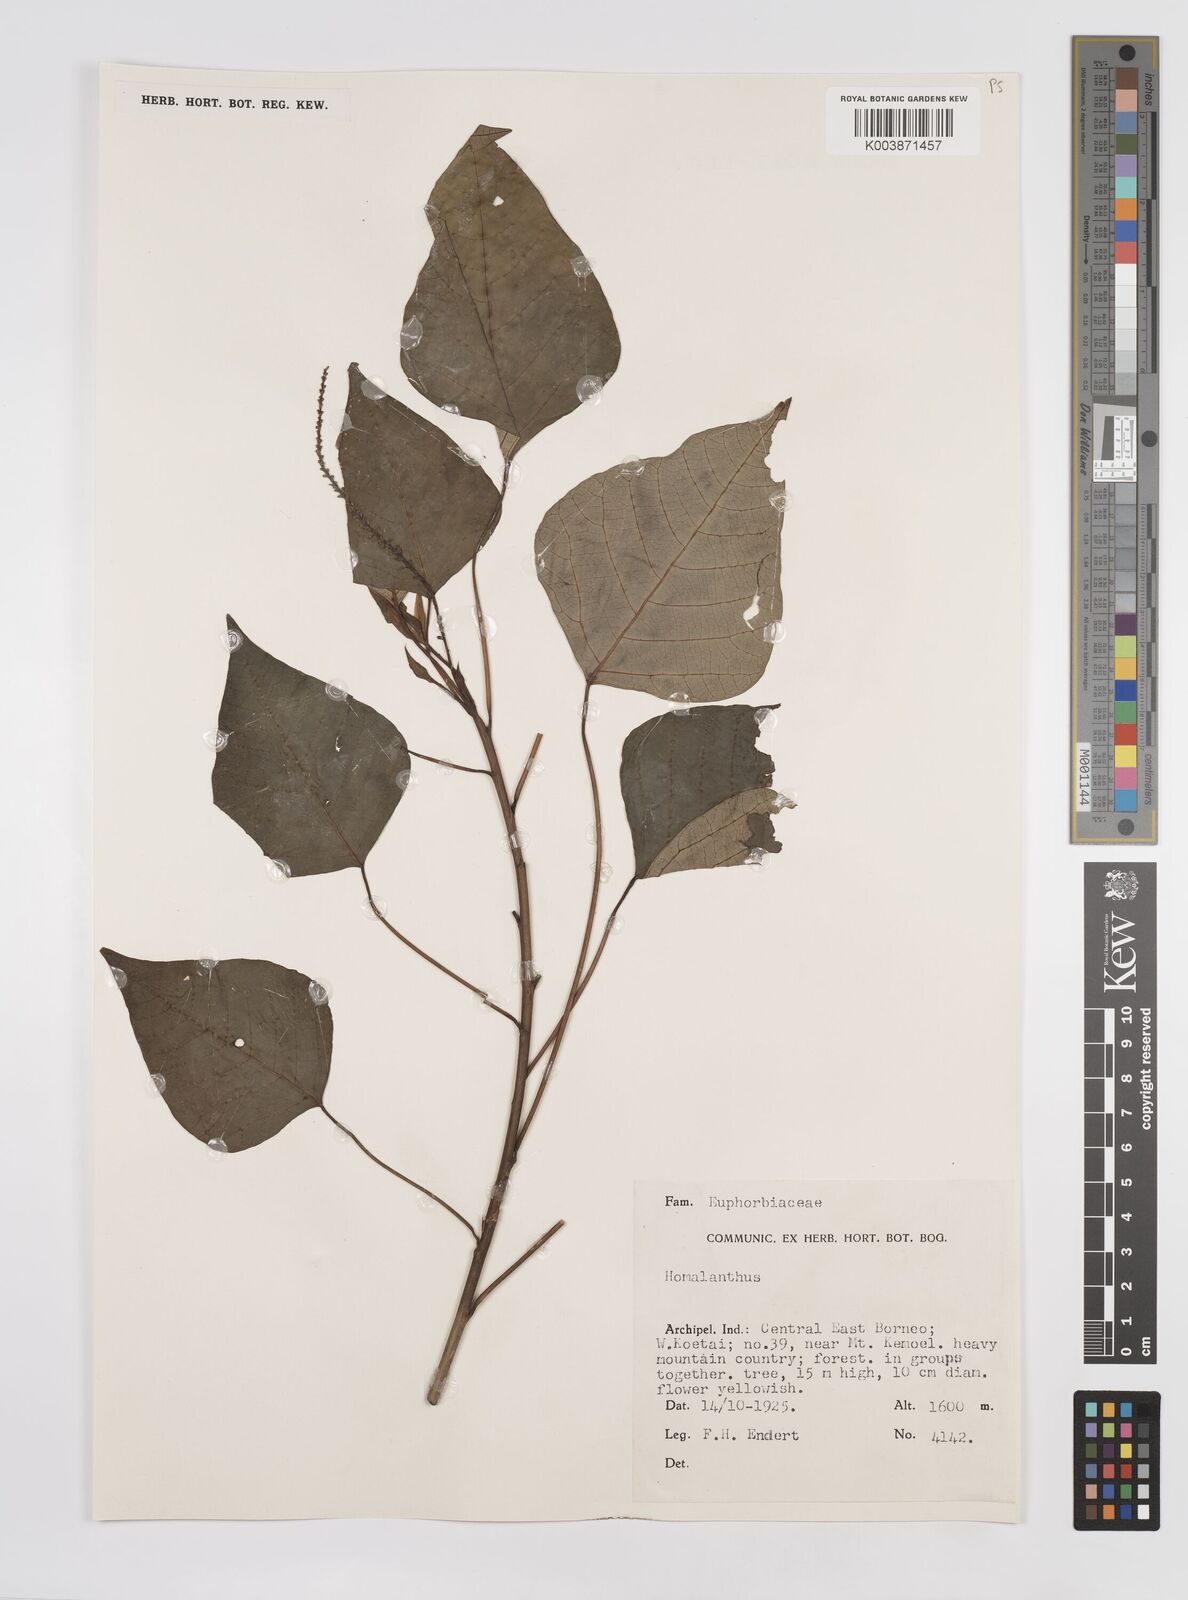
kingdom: Plantae
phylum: Tracheophyta
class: Magnoliopsida
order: Malpighiales
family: Euphorbiaceae
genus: Homalanthus
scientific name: Homalanthus populneus
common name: Spurge
